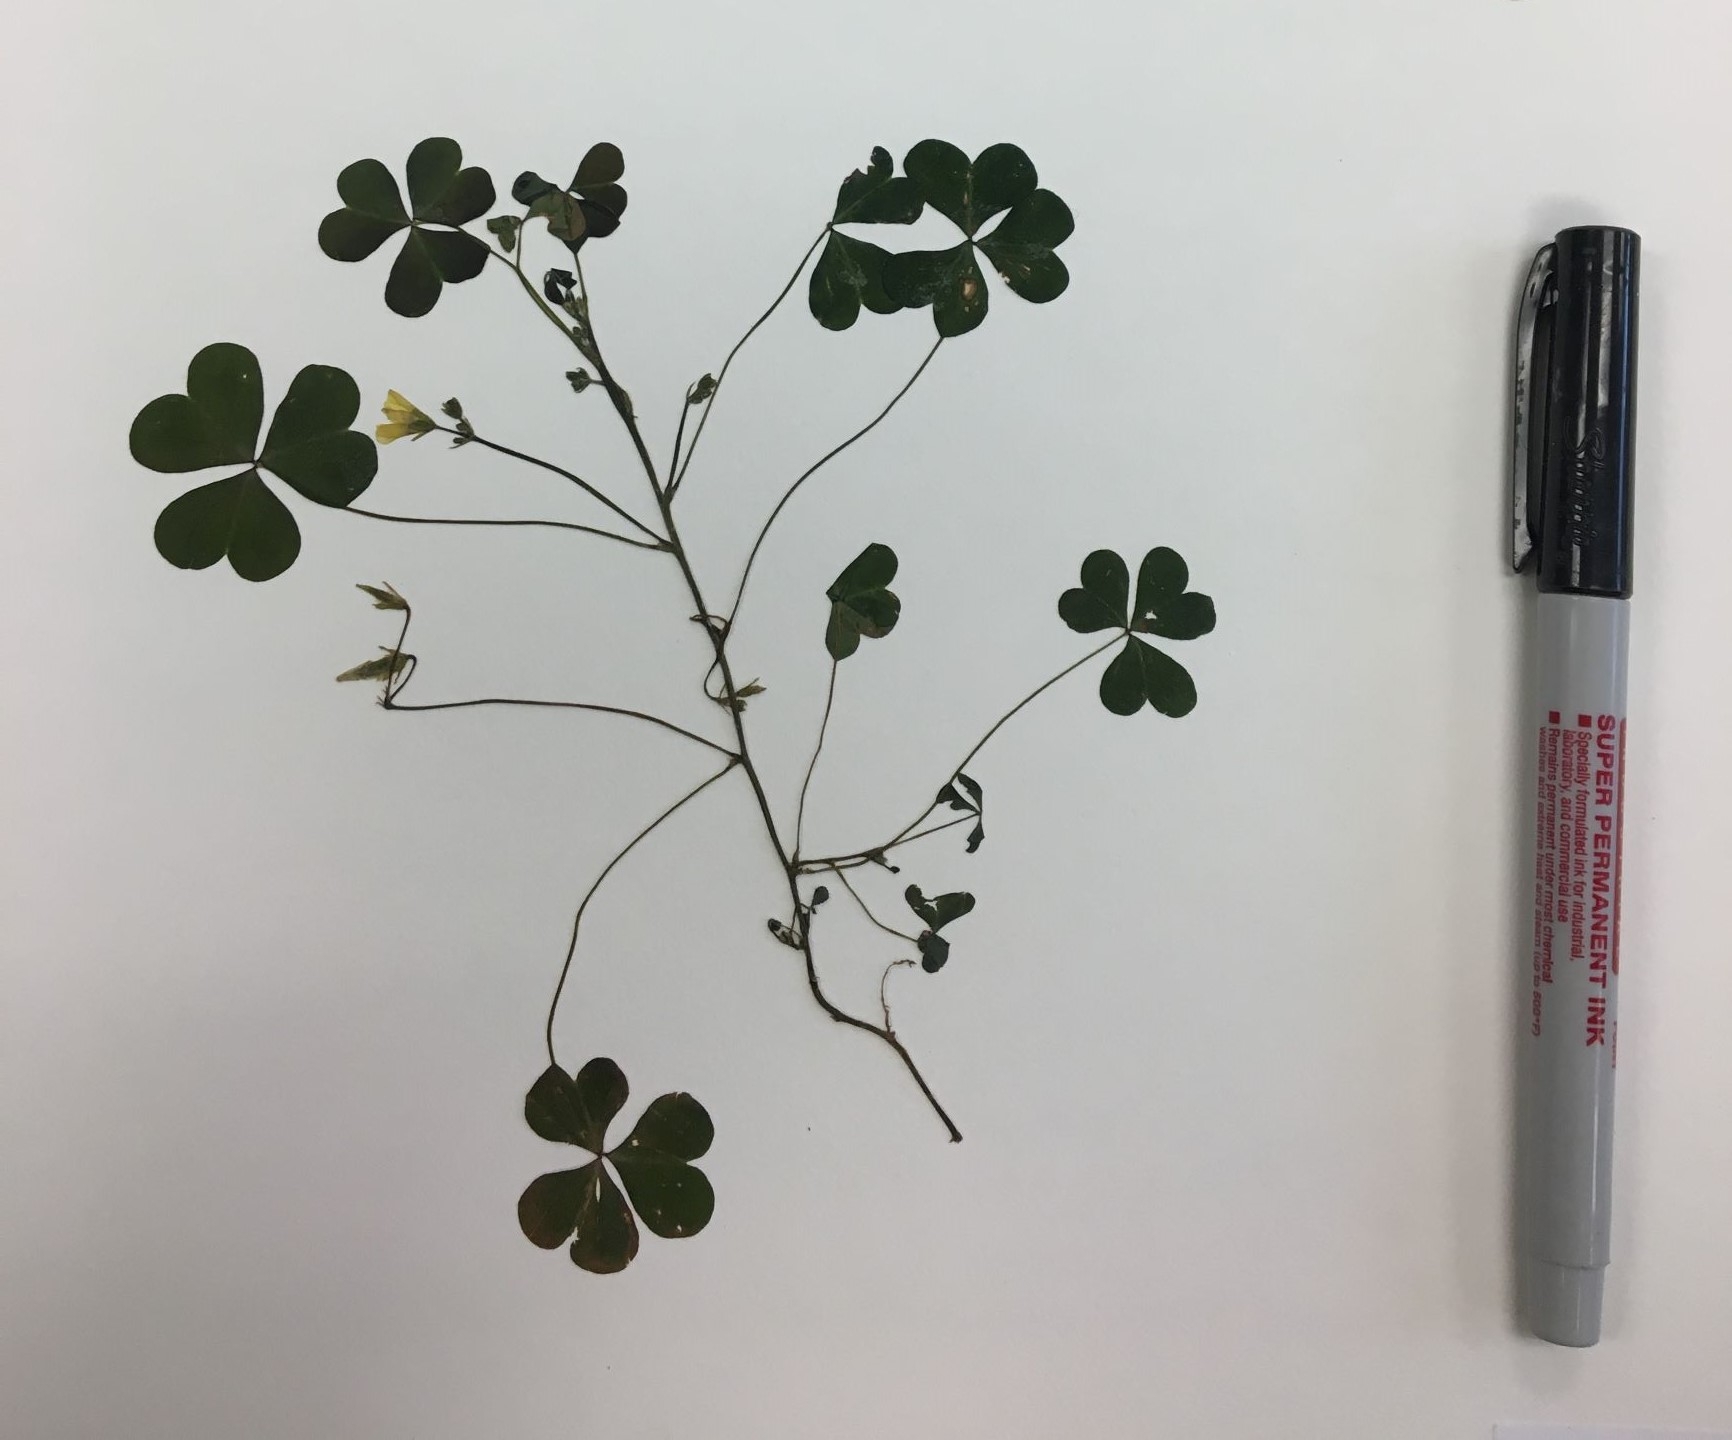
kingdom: Plantae
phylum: Tracheophyta
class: Magnoliopsida
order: Oxalidales
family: Oxalidaceae
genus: Oxalis
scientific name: Oxalis stricta
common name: Common yellow wood-sorrel
